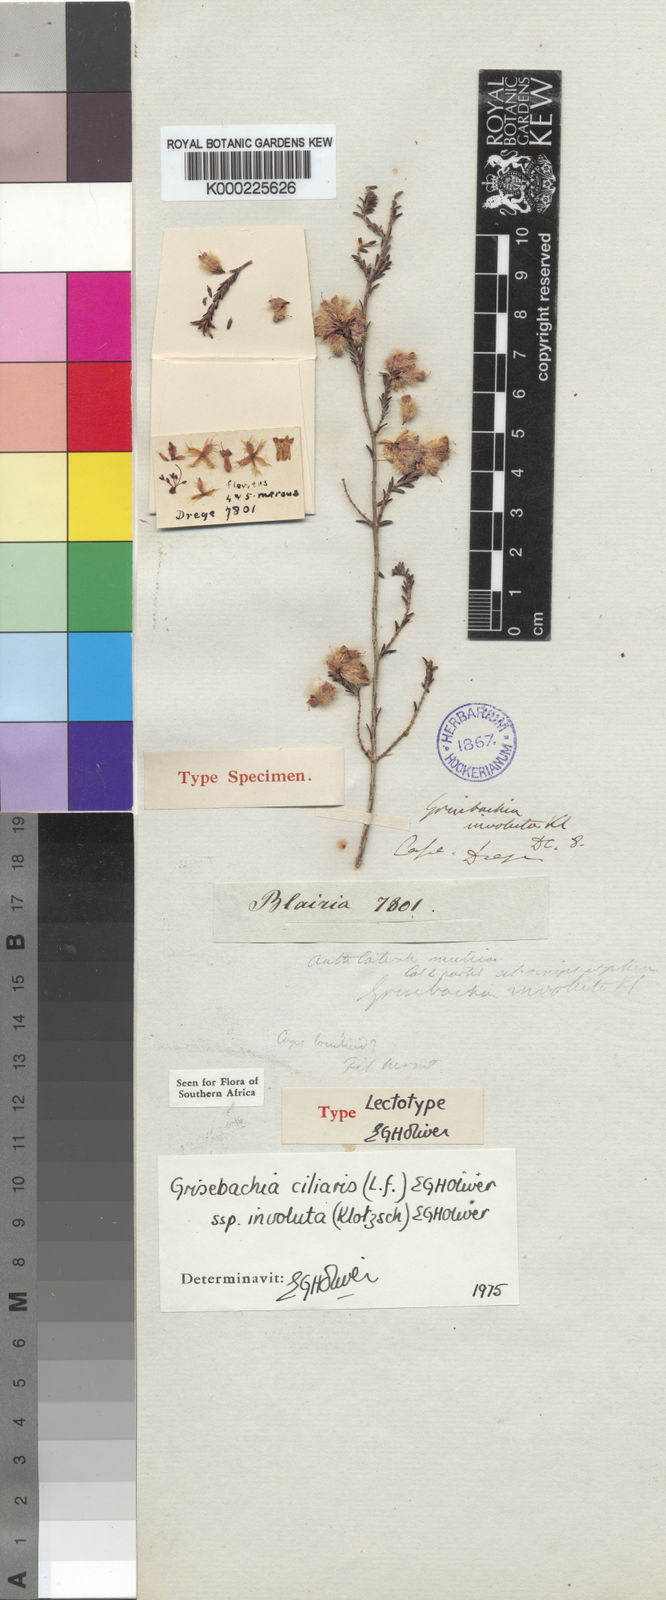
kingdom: Plantae
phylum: Tracheophyta
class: Magnoliopsida
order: Ericales
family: Ericaceae
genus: Erica
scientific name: Erica plumosa
